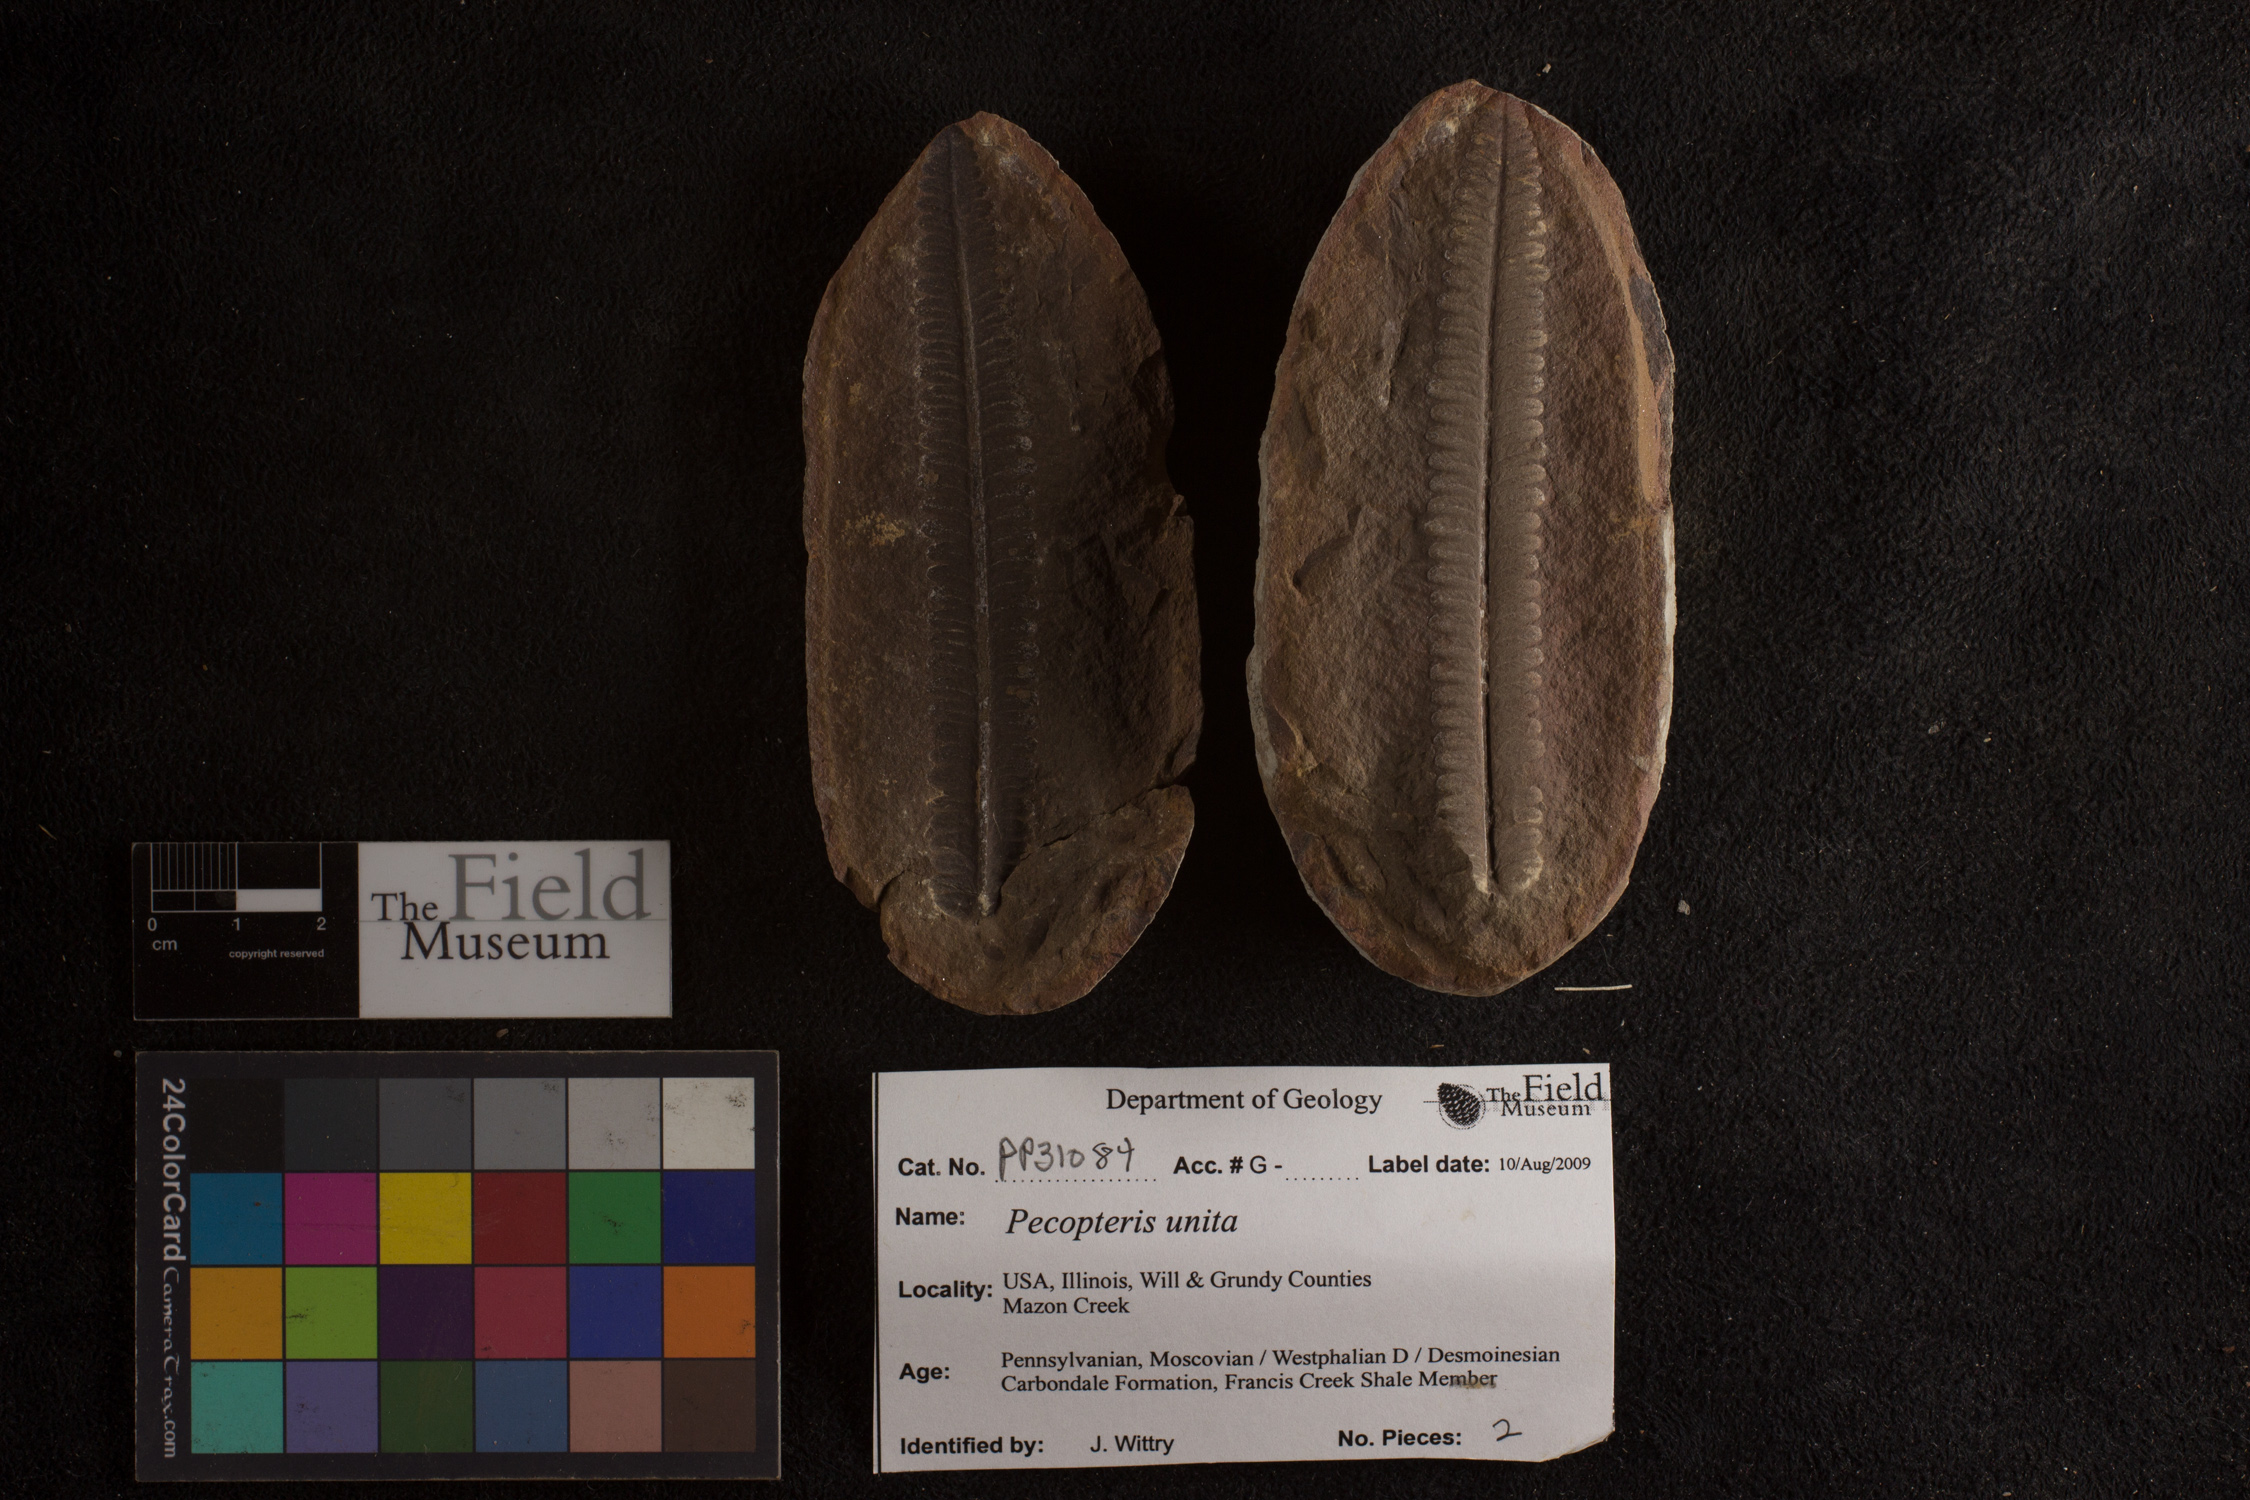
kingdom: Plantae
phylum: Tracheophyta
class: Polypodiopsida
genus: Diplazites
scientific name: Diplazites
